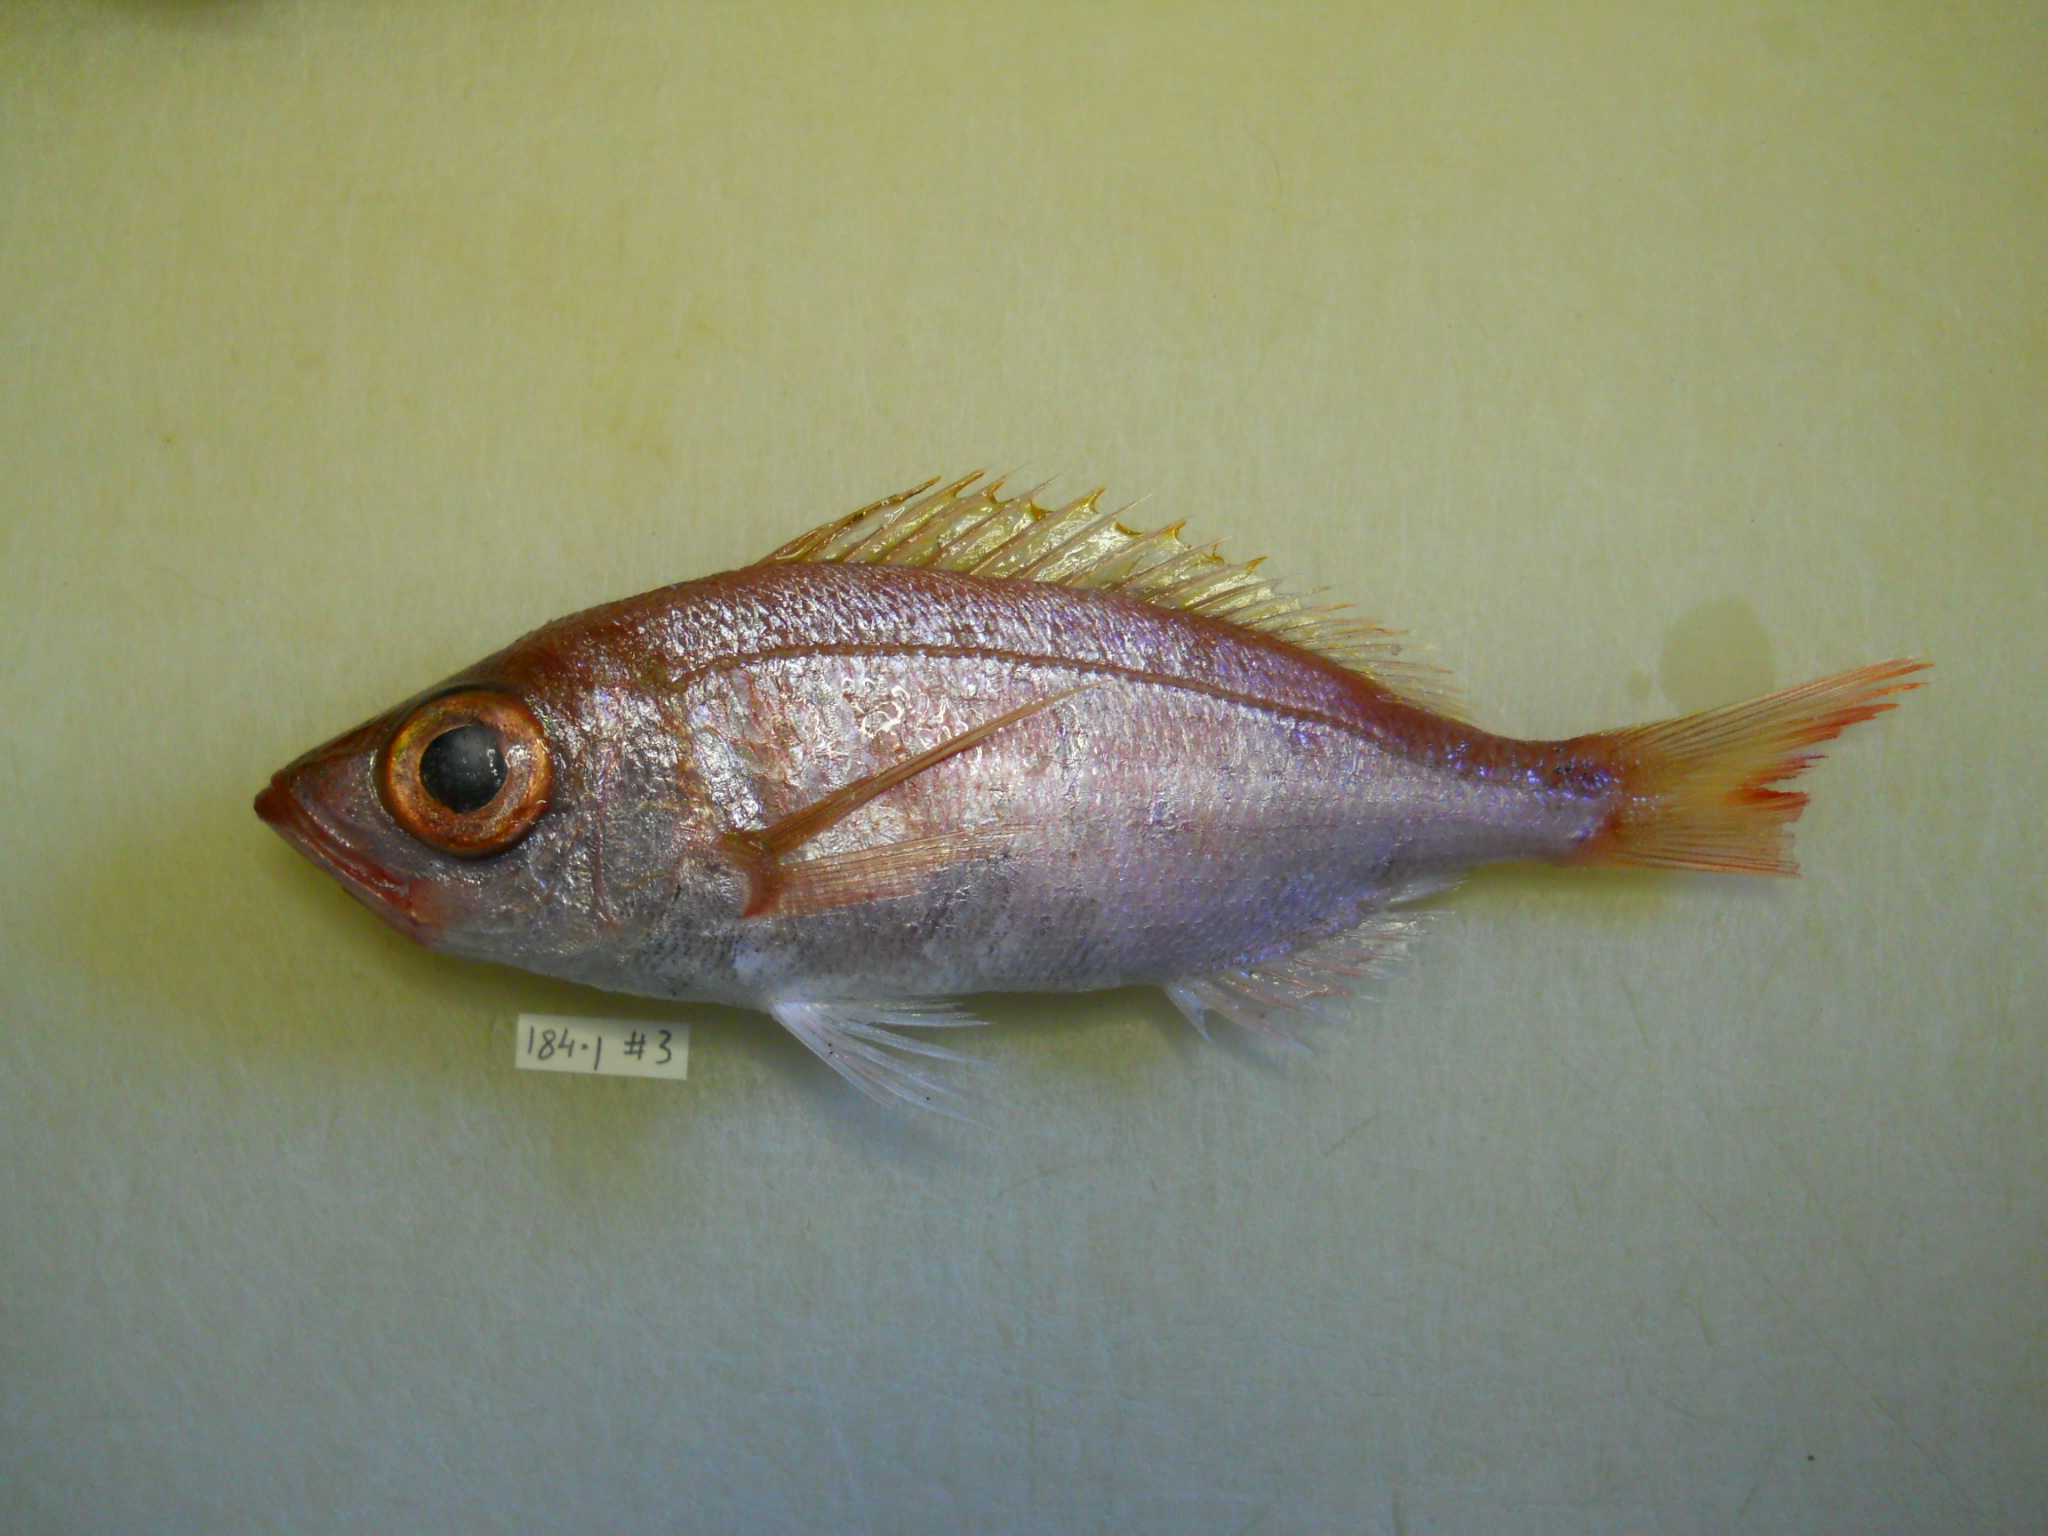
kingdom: Animalia
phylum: Chordata
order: Perciformes
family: Sparidae
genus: Spicara
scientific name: Spicara australis
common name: Picarel
